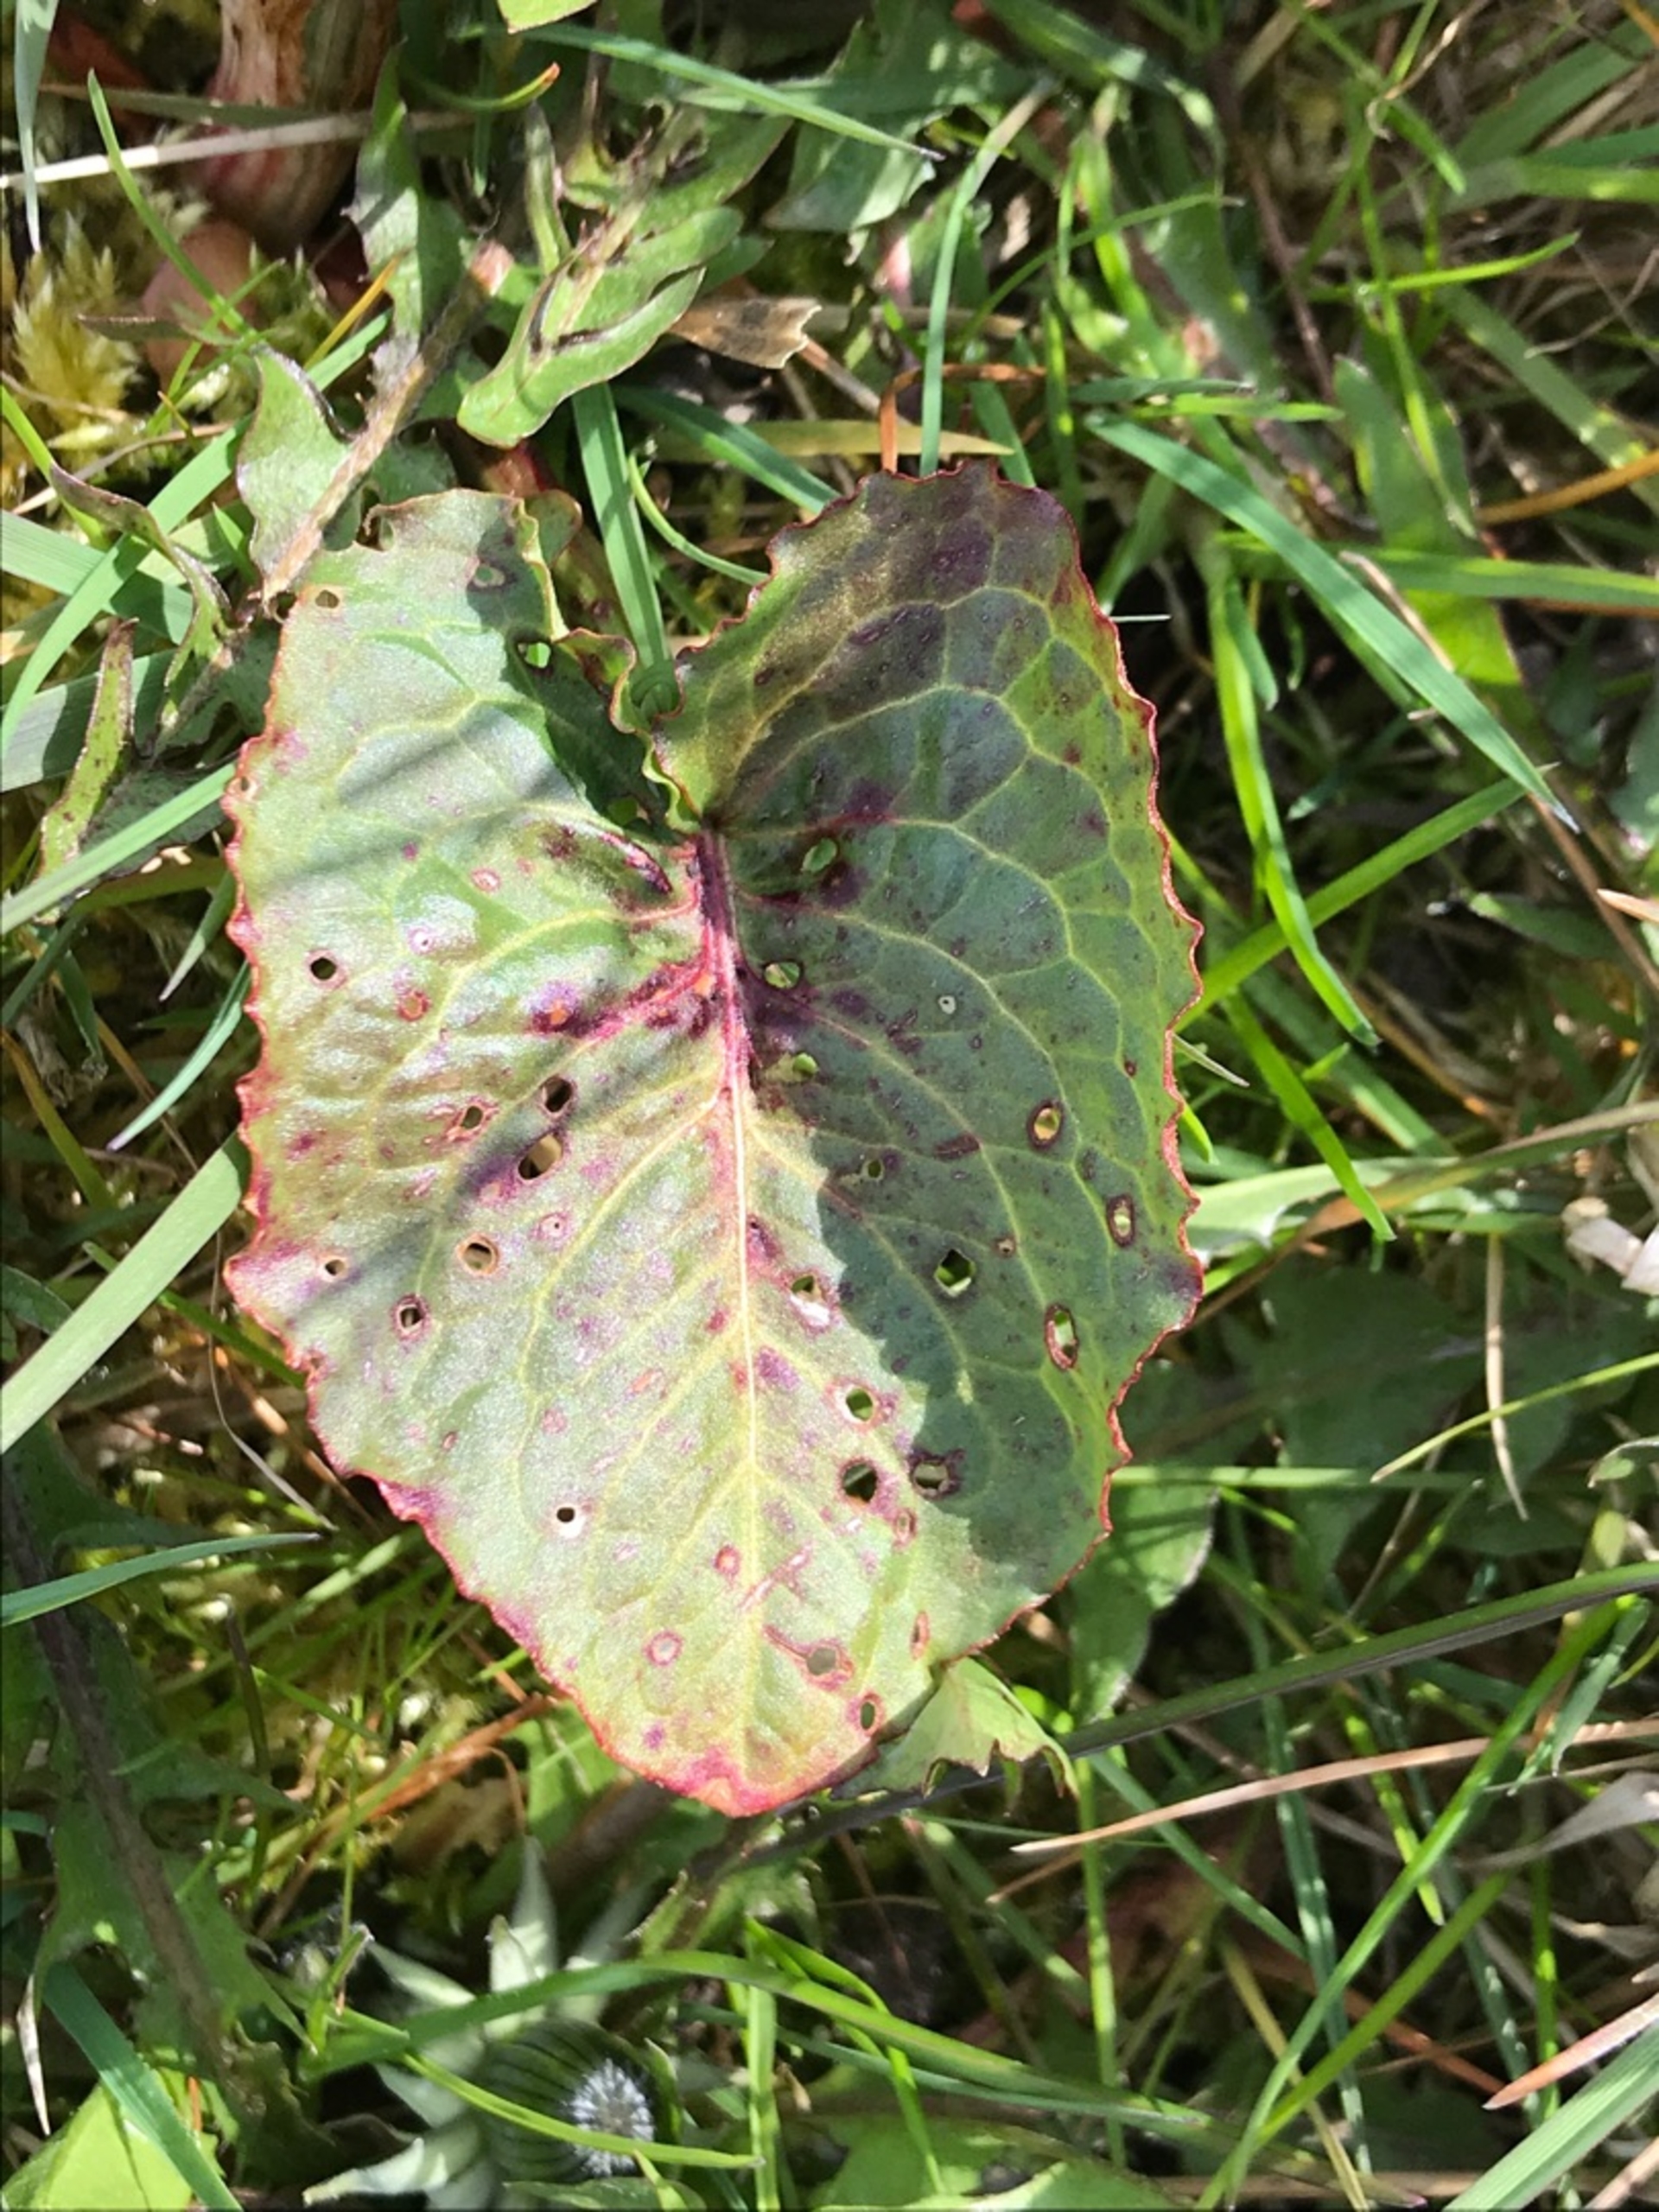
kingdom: Plantae
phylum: Tracheophyta
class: Magnoliopsida
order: Caryophyllales
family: Polygonaceae
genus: Rumex
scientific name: Rumex obtusifolius
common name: Butbladet skræppe
